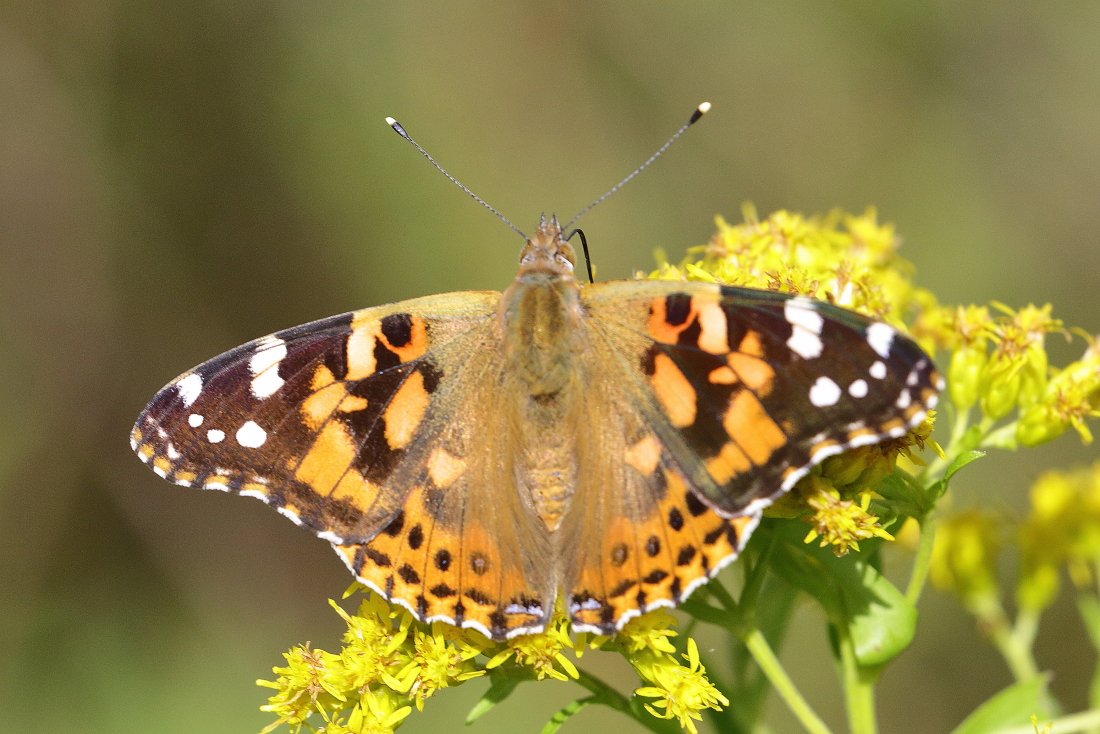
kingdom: Animalia
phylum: Arthropoda
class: Insecta
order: Lepidoptera
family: Nymphalidae
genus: Vanessa
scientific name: Vanessa cardui
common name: Painted Lady
